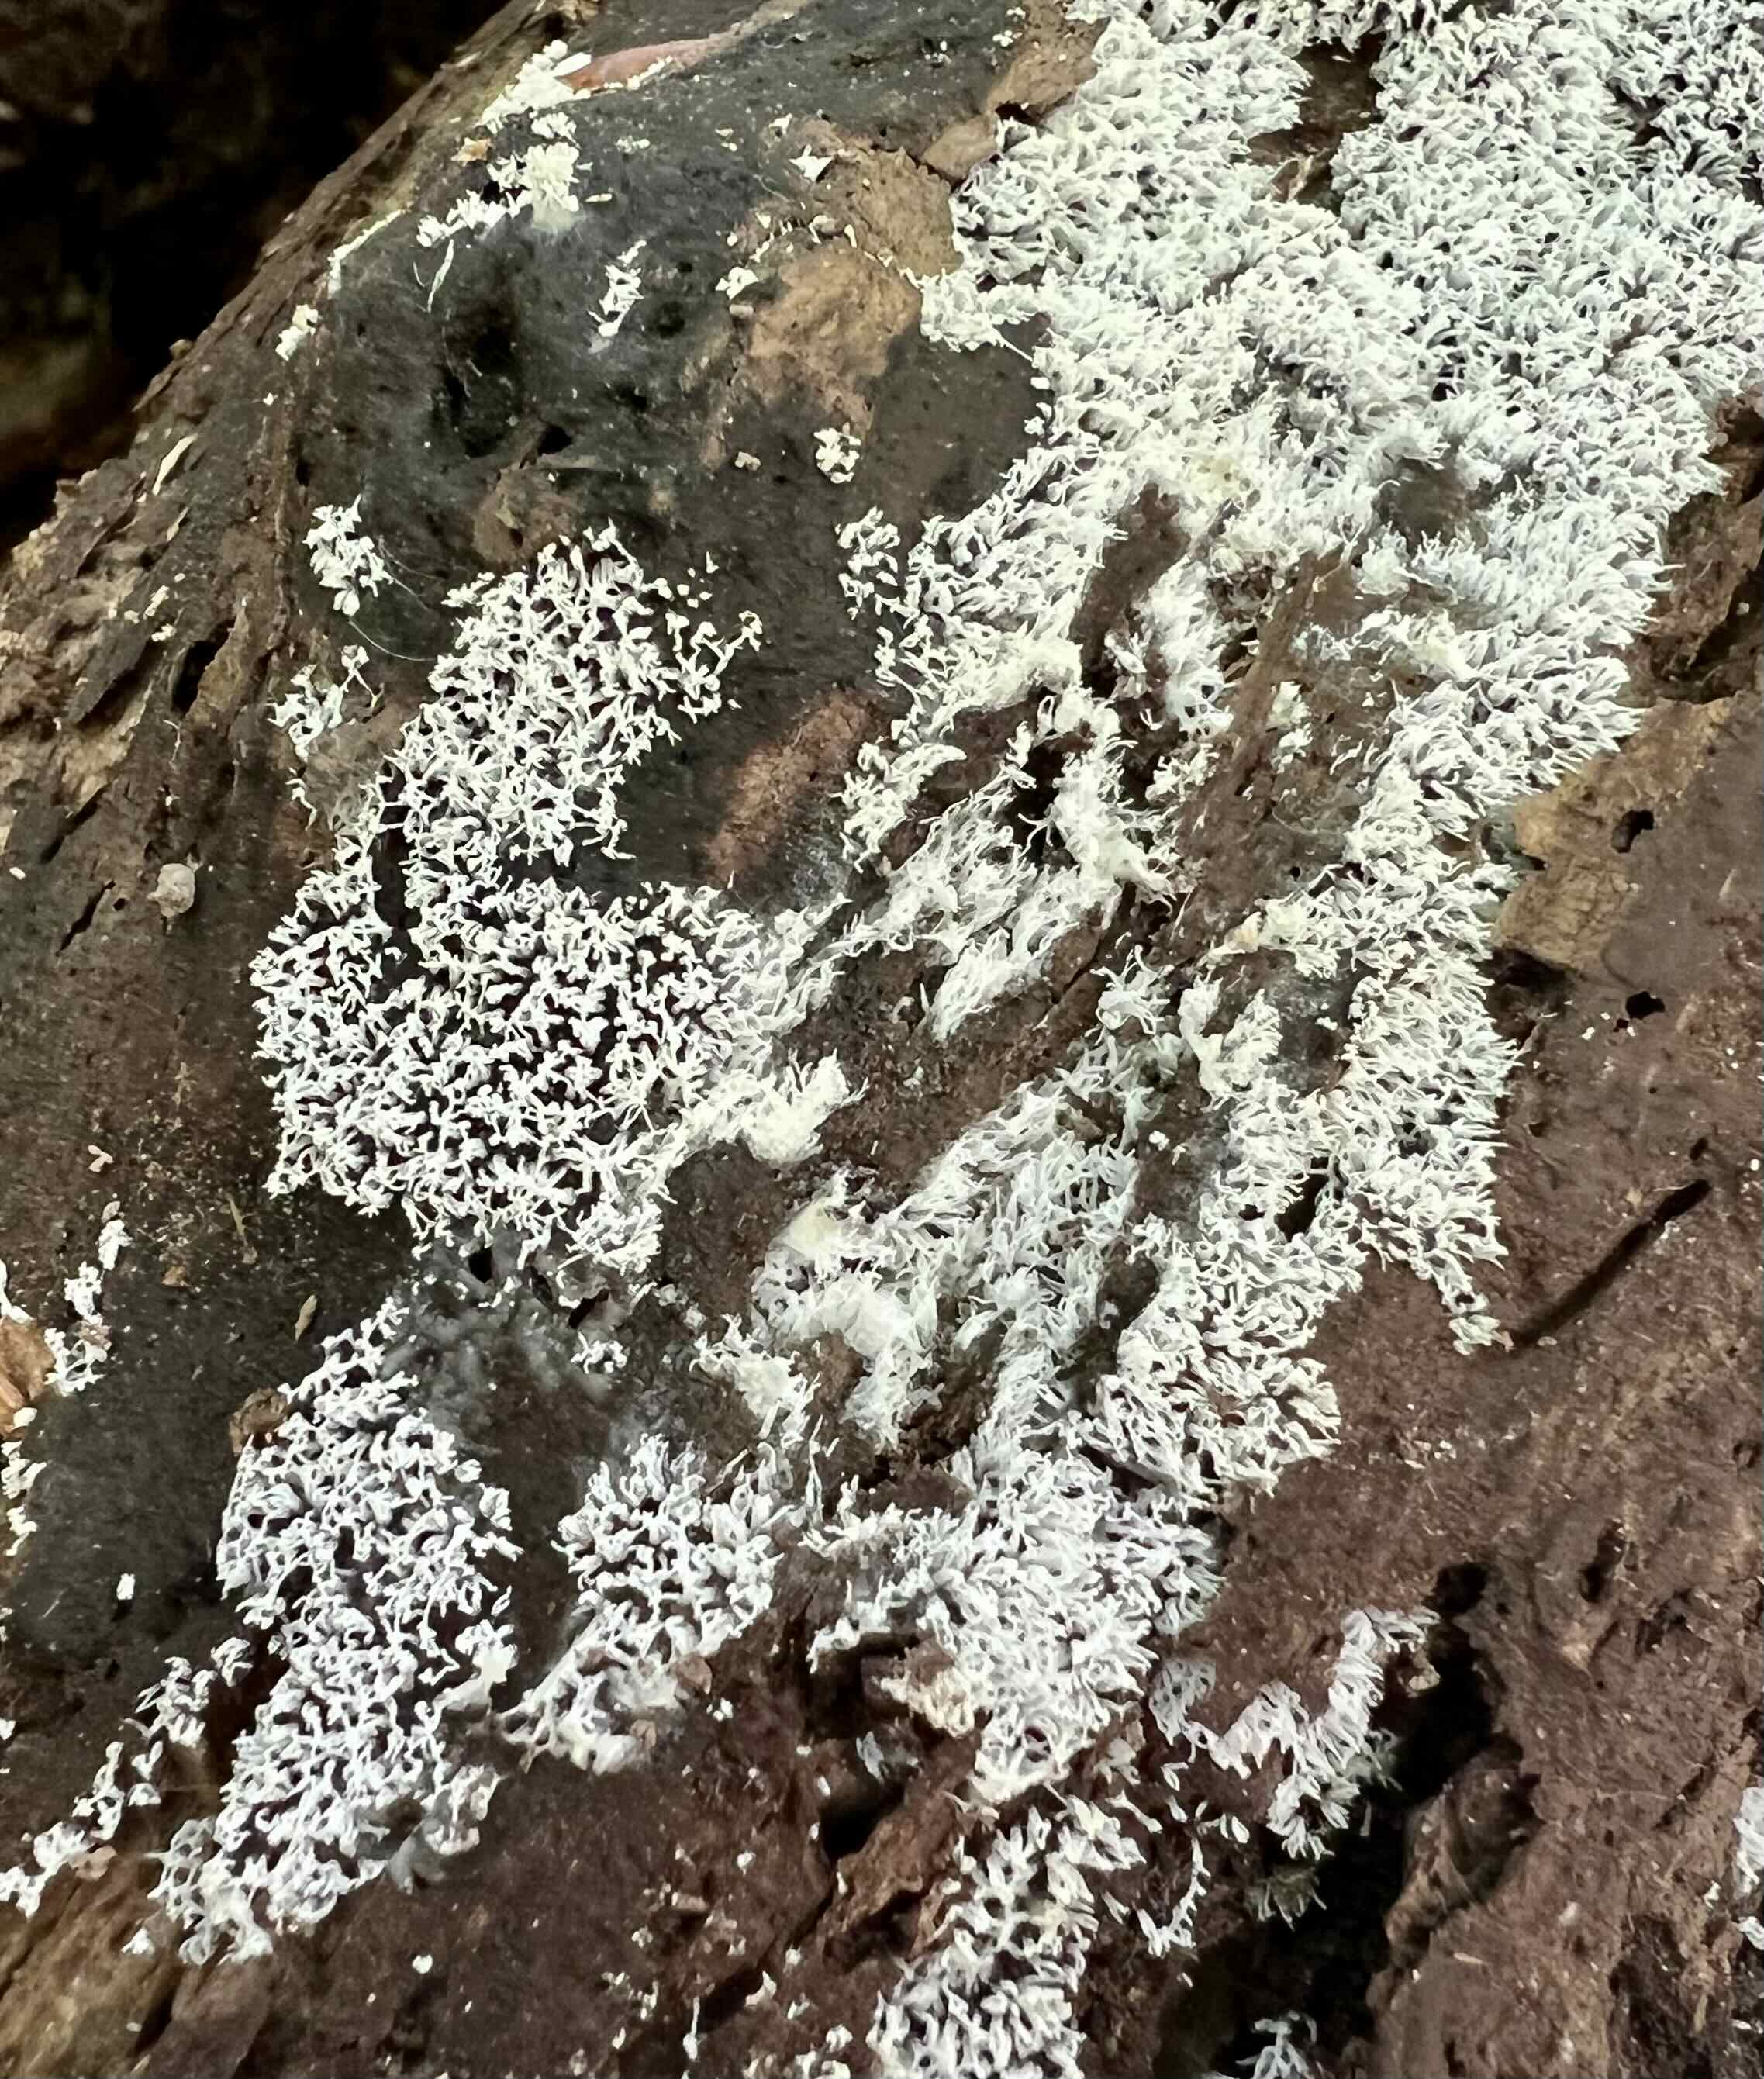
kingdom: Protozoa
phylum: Mycetozoa
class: Protosteliomycetes
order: Ceratiomyxales
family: Ceratiomyxaceae
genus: Ceratiomyxa
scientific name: Ceratiomyxa fruticulosa
